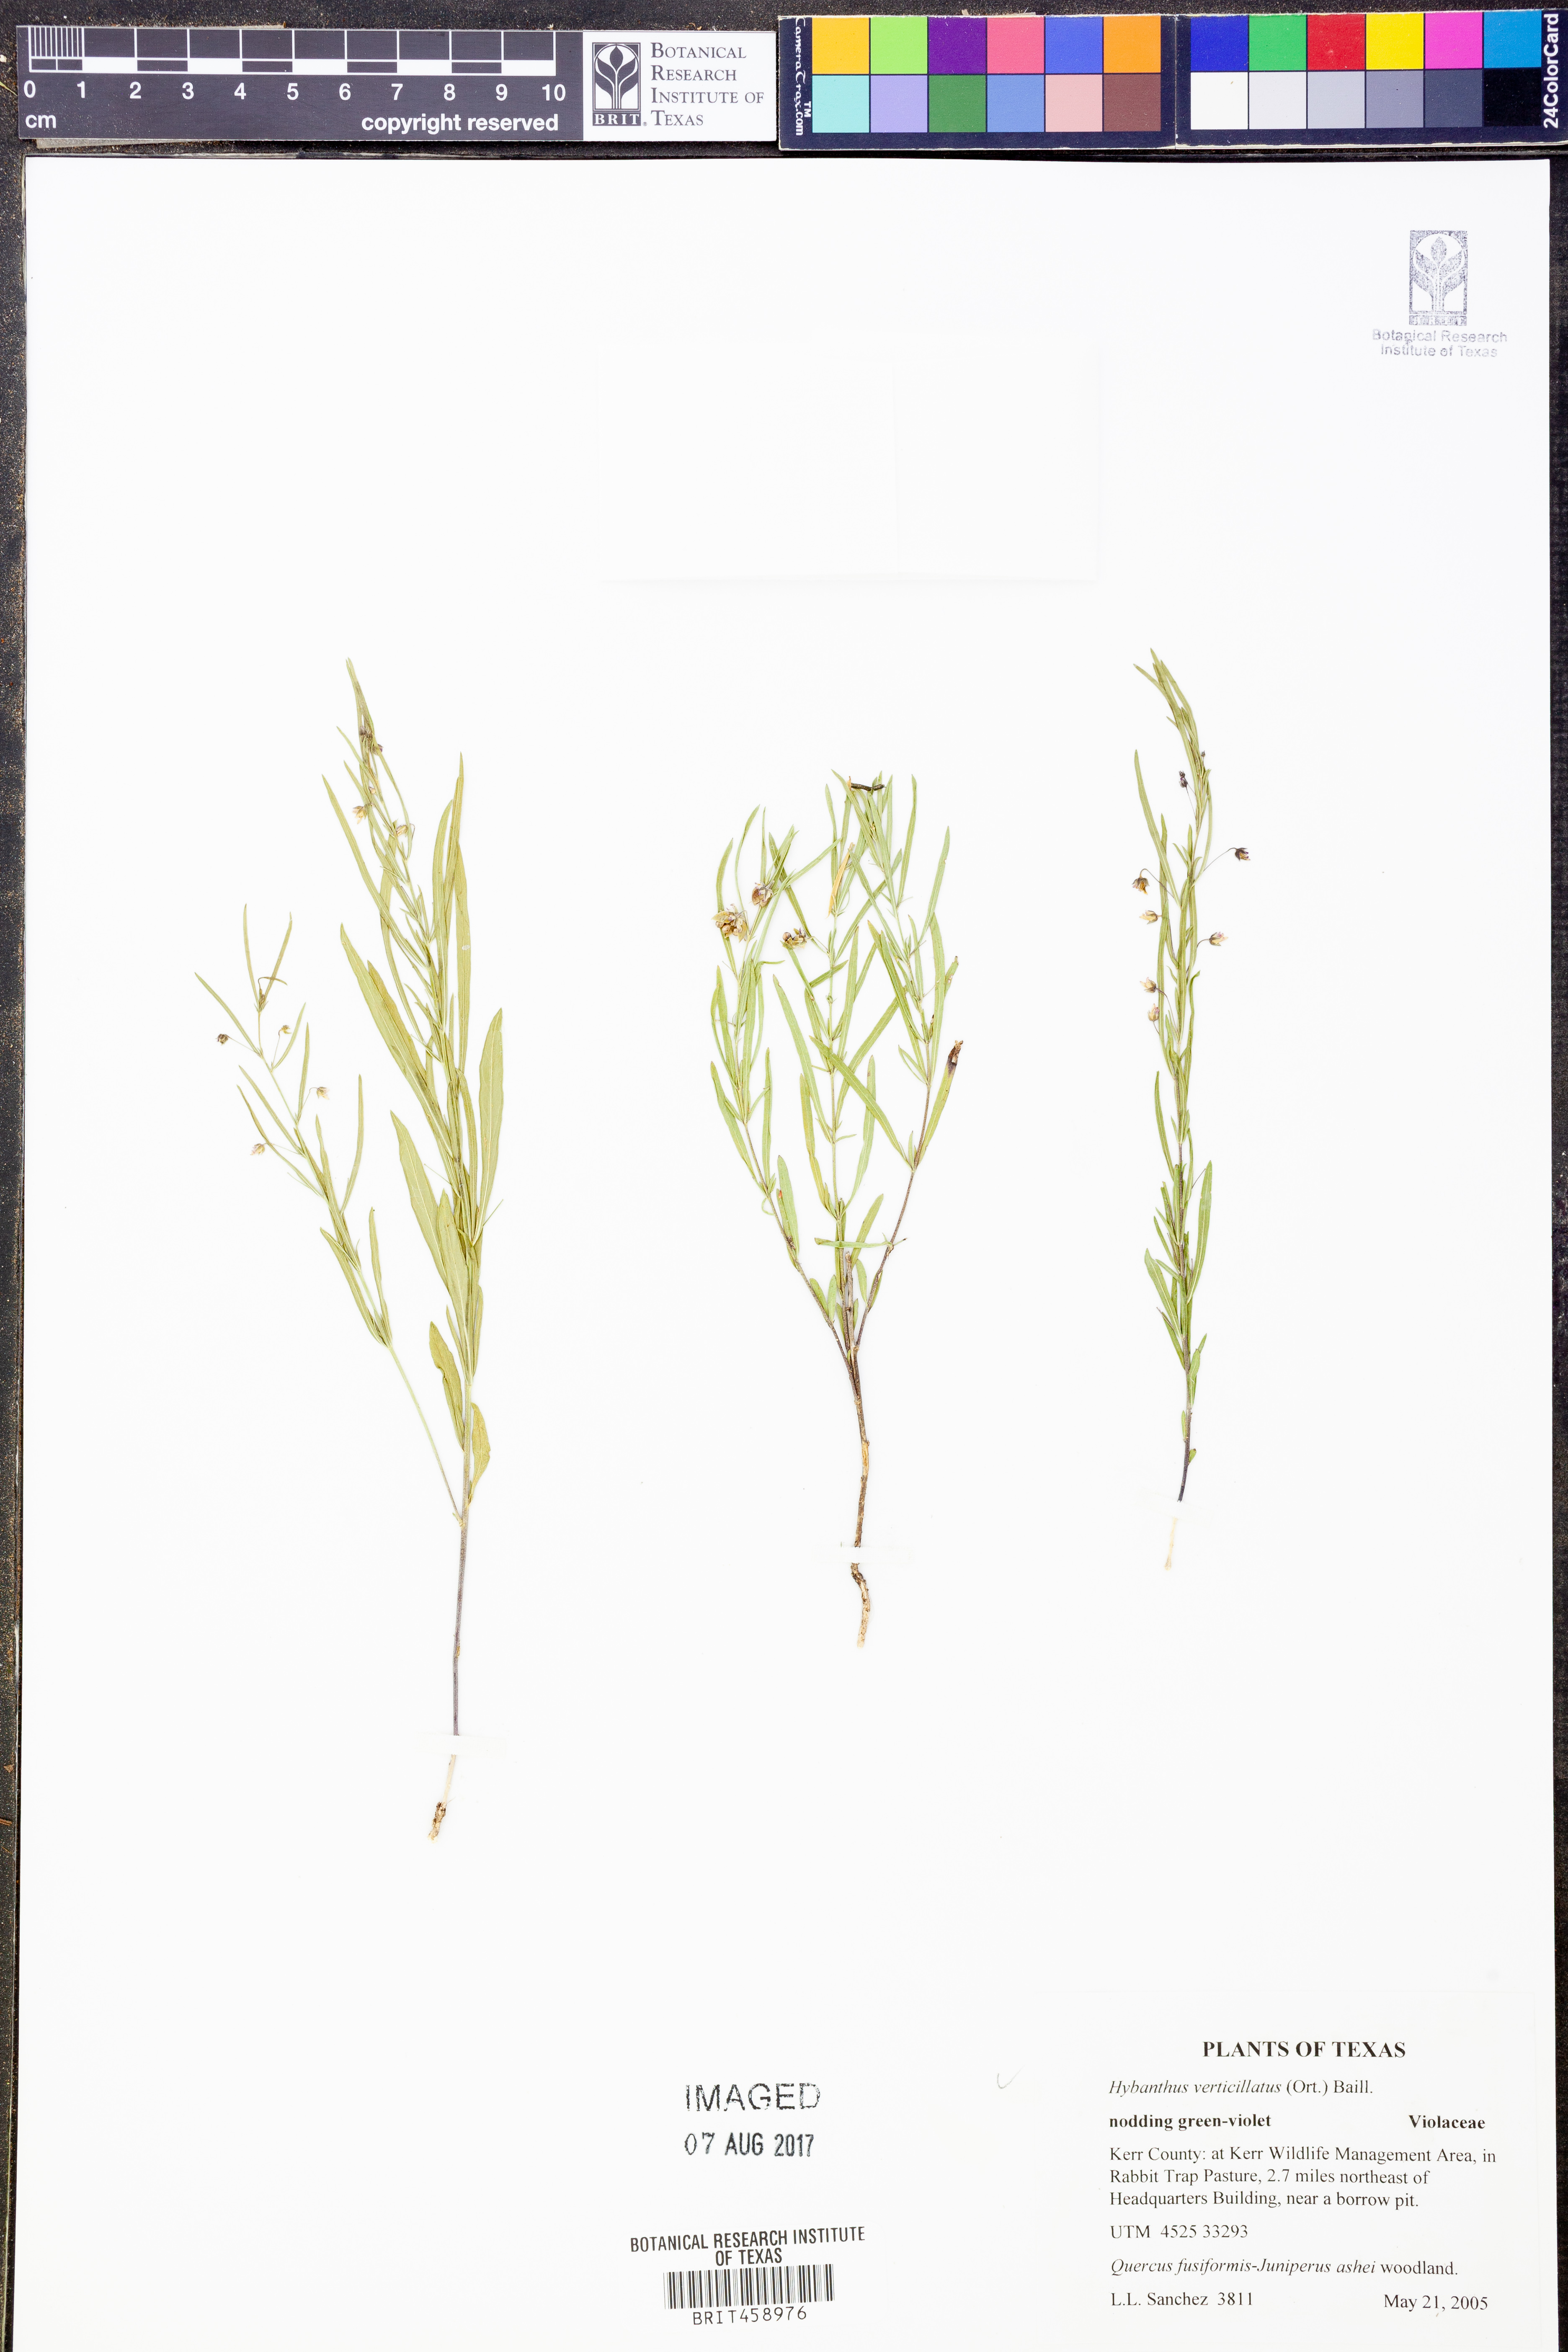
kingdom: Plantae
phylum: Tracheophyta
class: Magnoliopsida
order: Malpighiales
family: Violaceae
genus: Pombalia
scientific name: Pombalia verticillata
